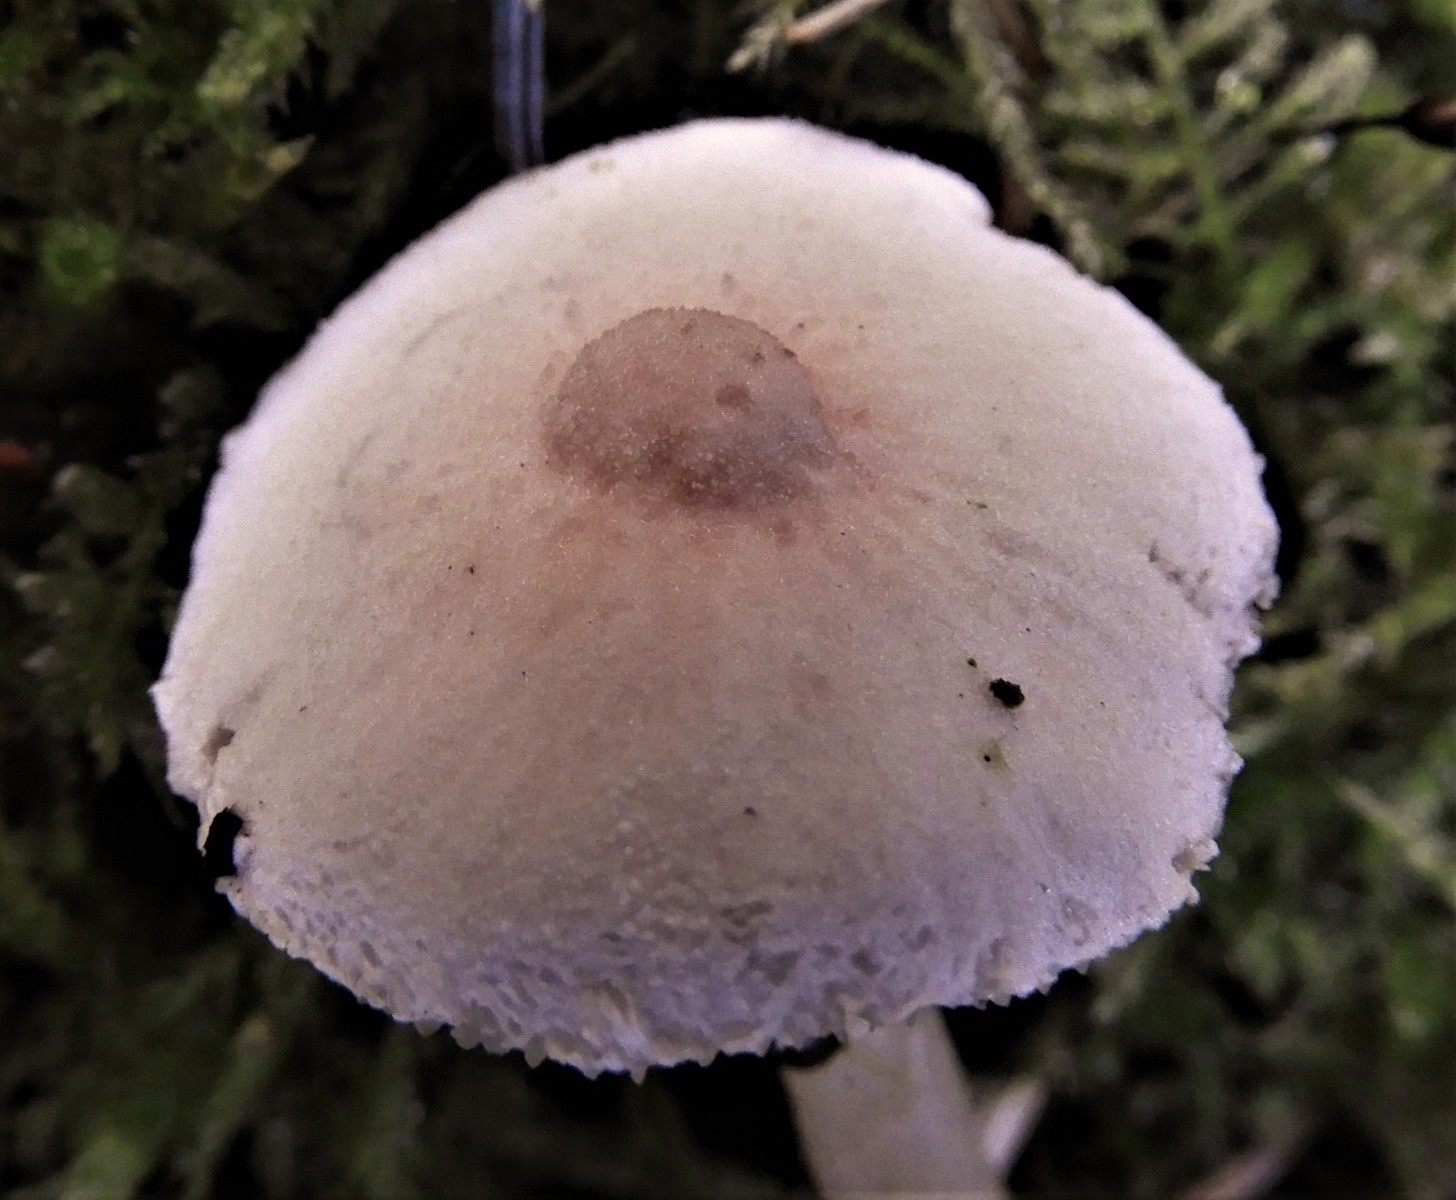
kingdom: Fungi
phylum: Basidiomycota
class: Agaricomycetes
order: Agaricales
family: Tricholomataceae
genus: Cystoderma
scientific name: Cystoderma carcharias
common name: rødgrå grynhat
